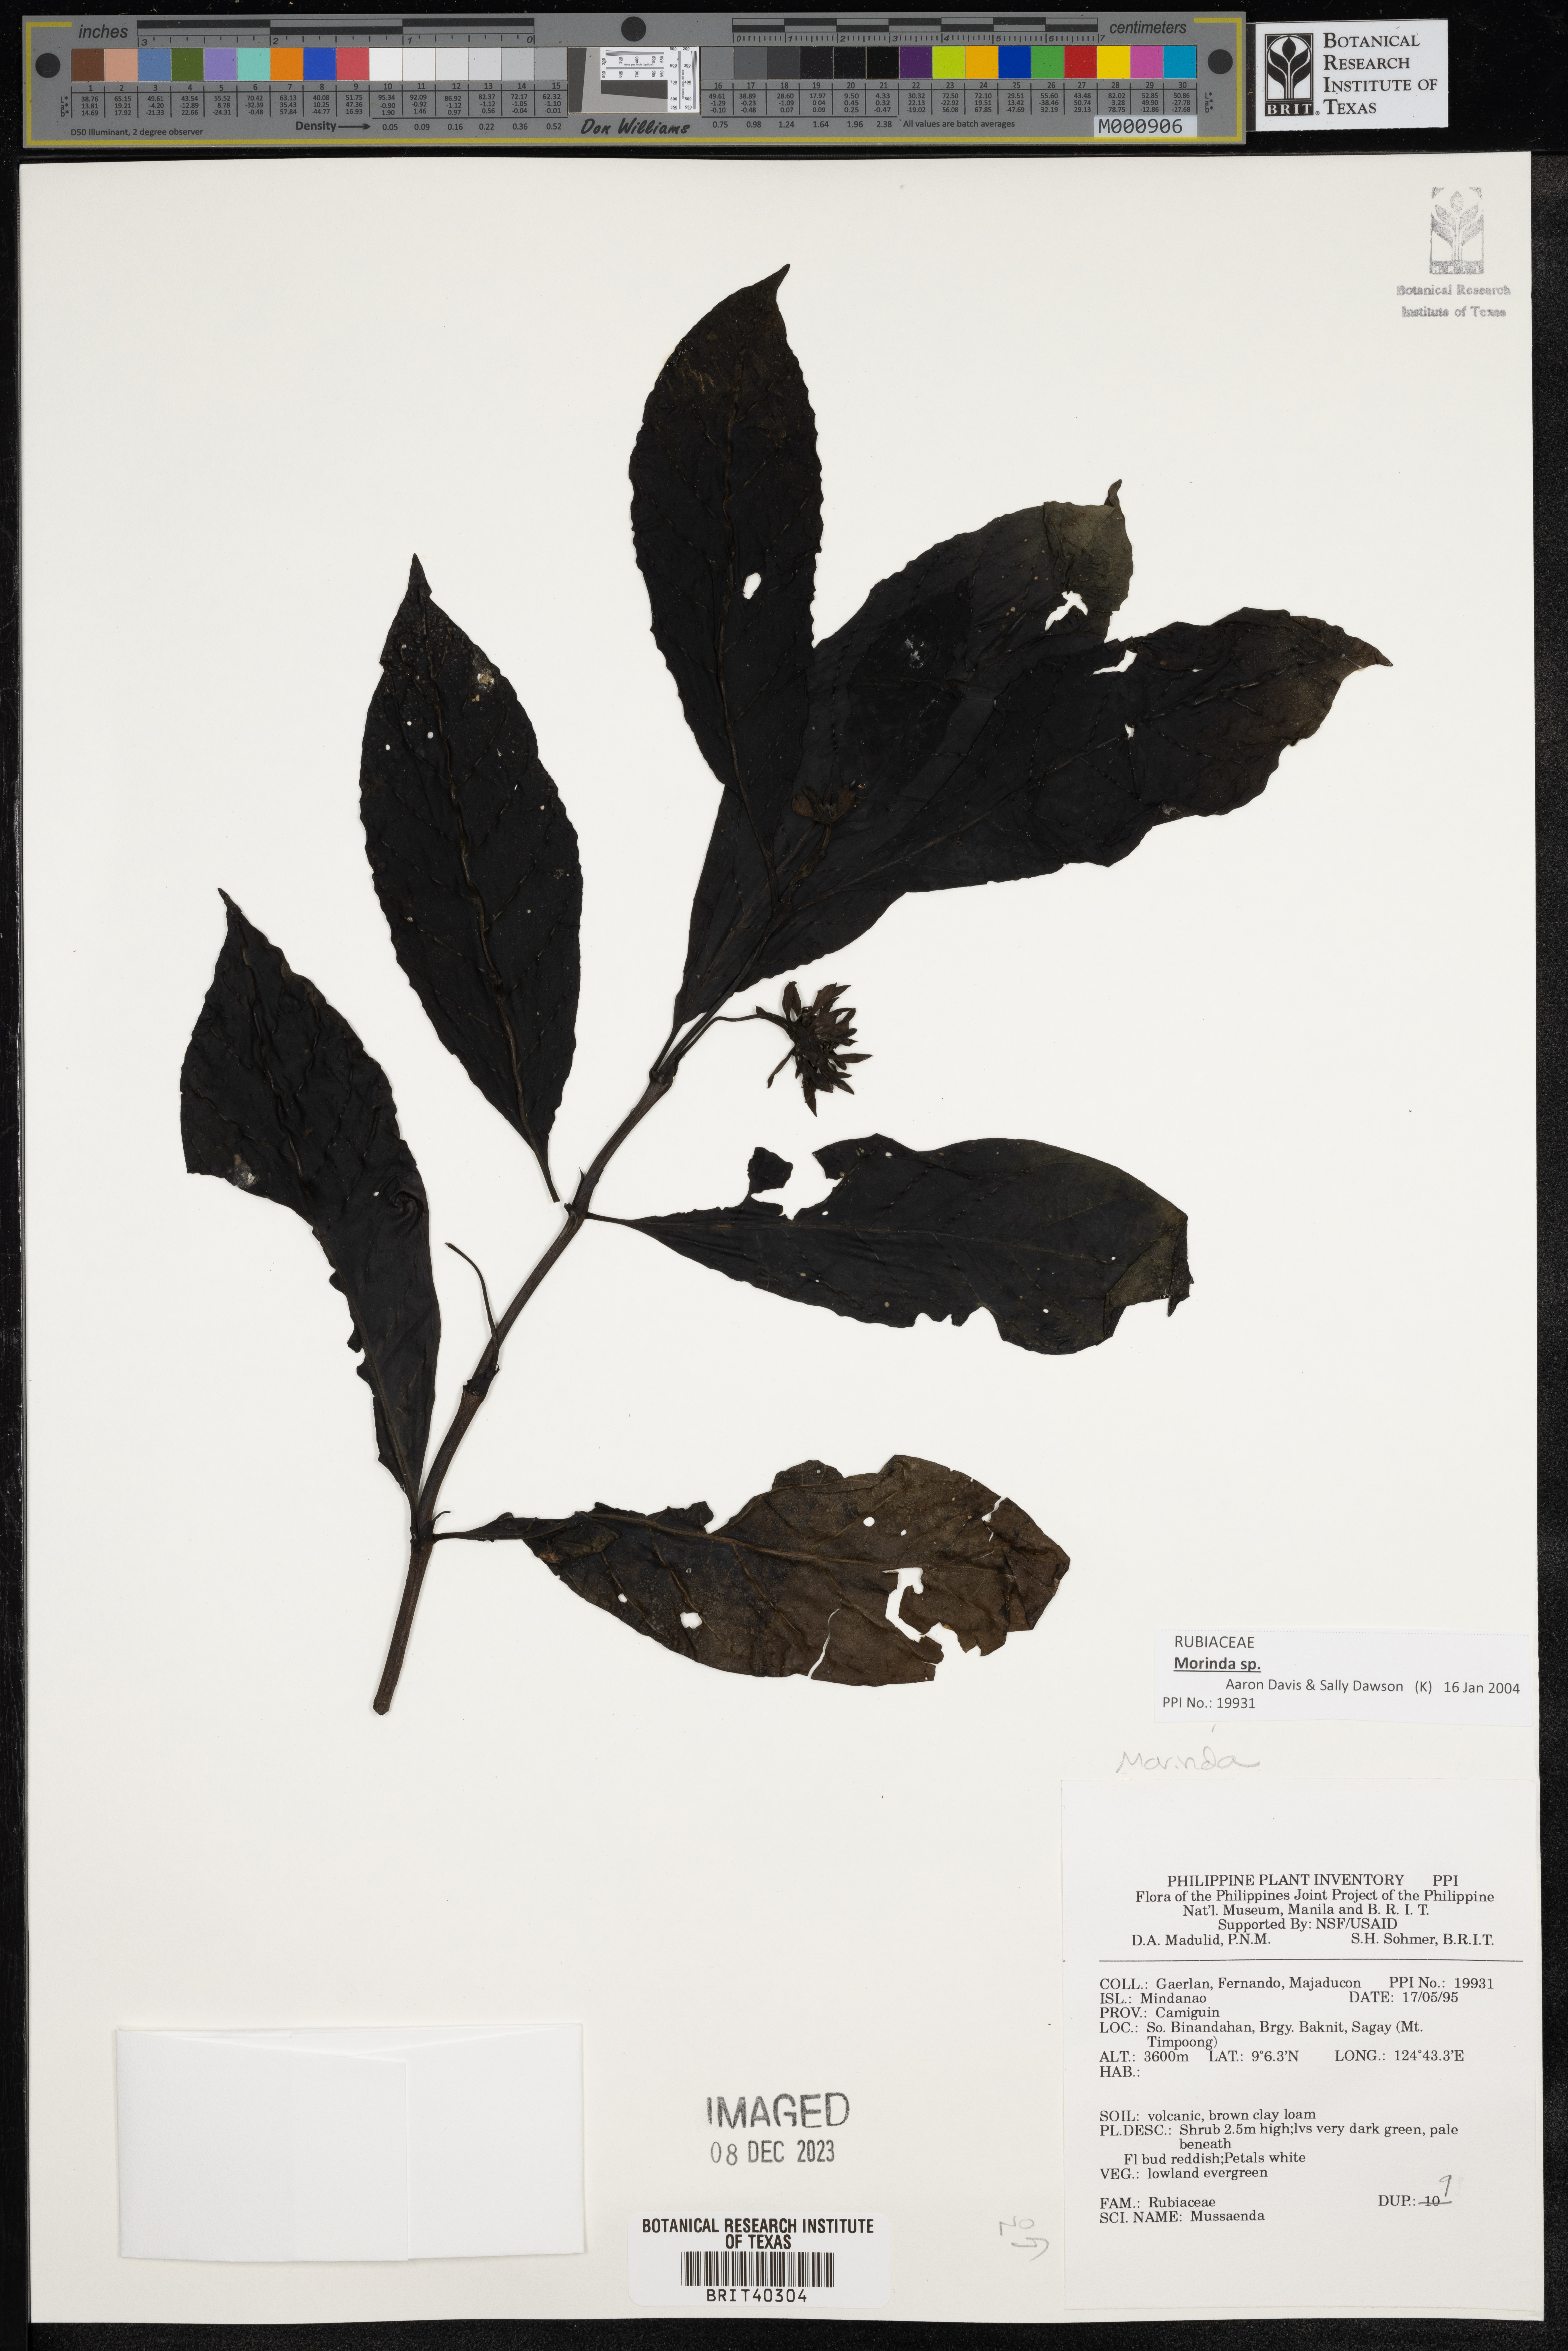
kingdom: Plantae
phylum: Tracheophyta
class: Magnoliopsida
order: Gentianales
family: Rubiaceae
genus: Morinda
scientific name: Morinda
